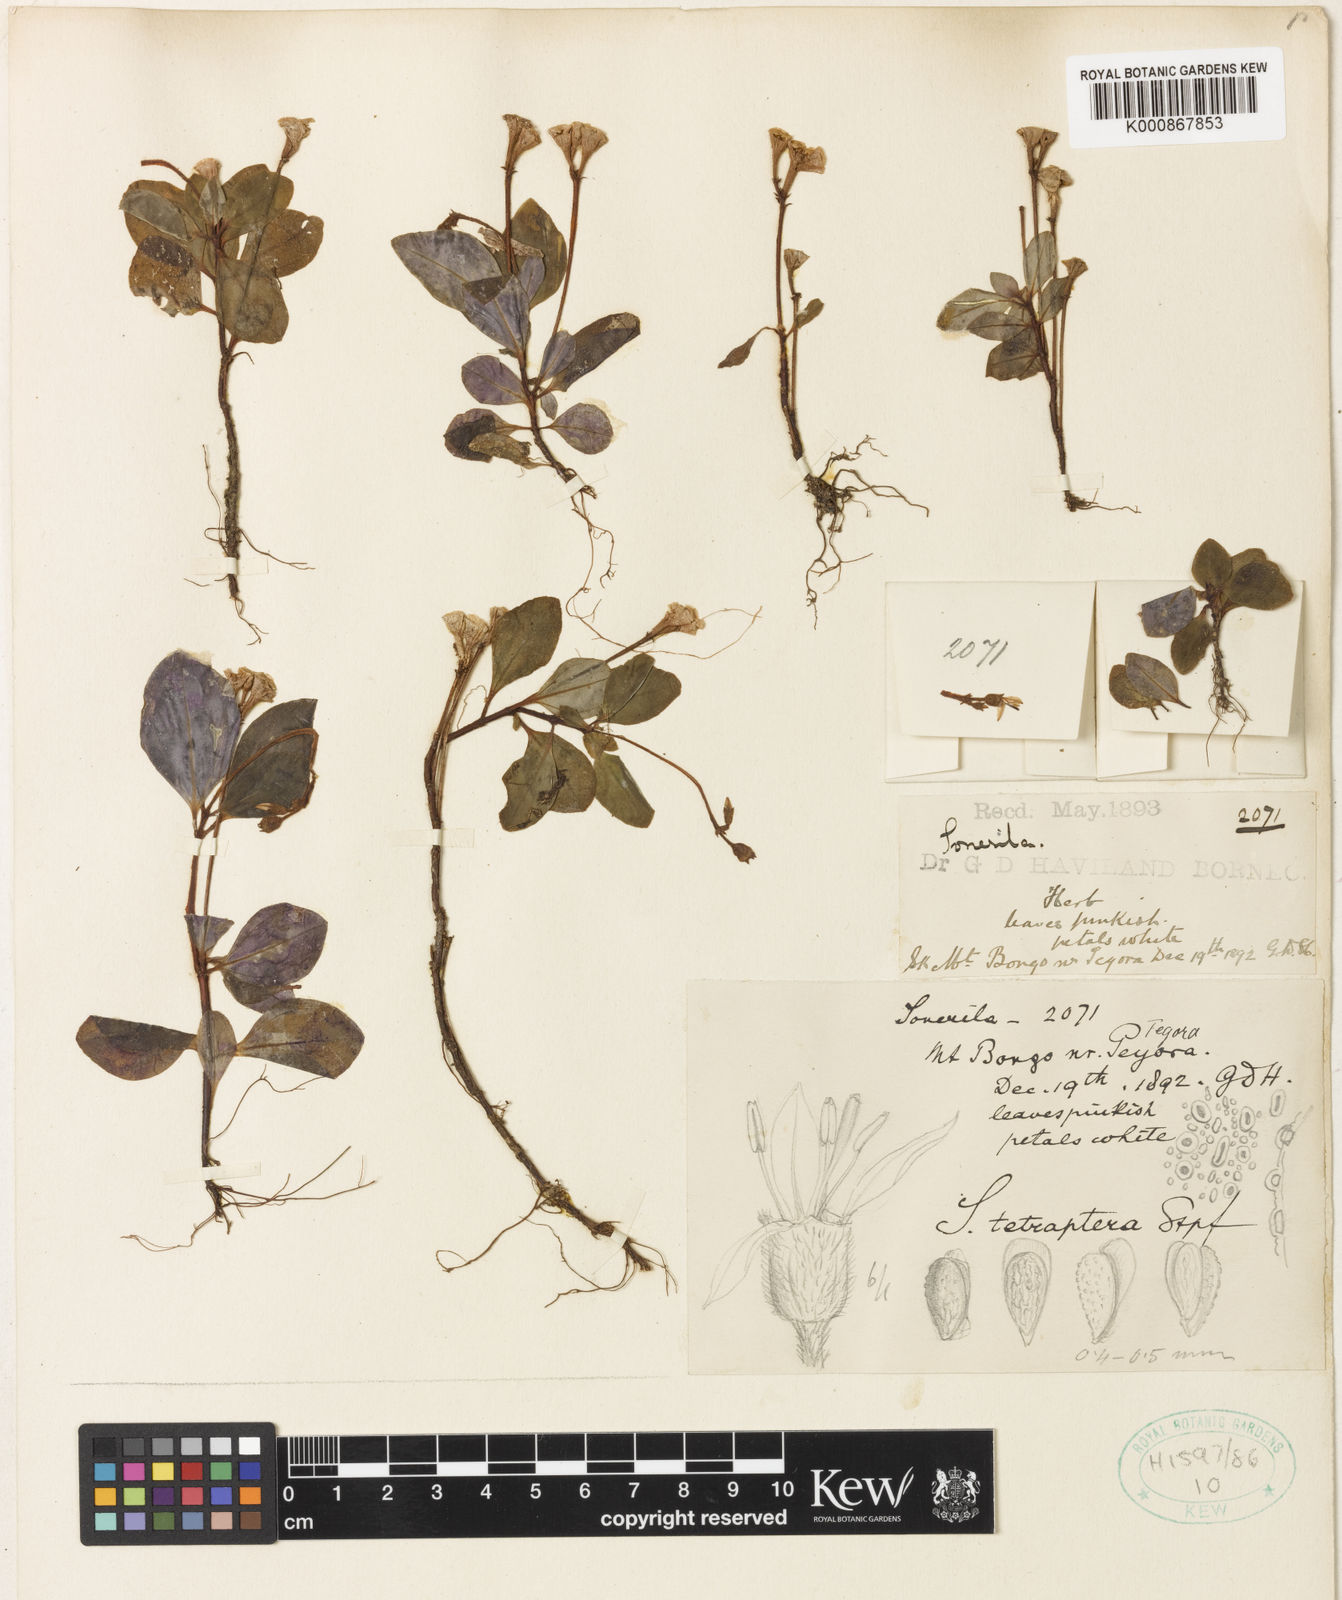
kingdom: Plantae
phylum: Tracheophyta
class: Magnoliopsida
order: Myrtales
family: Melastomataceae
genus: Sonerila
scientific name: Sonerila tetraptera
